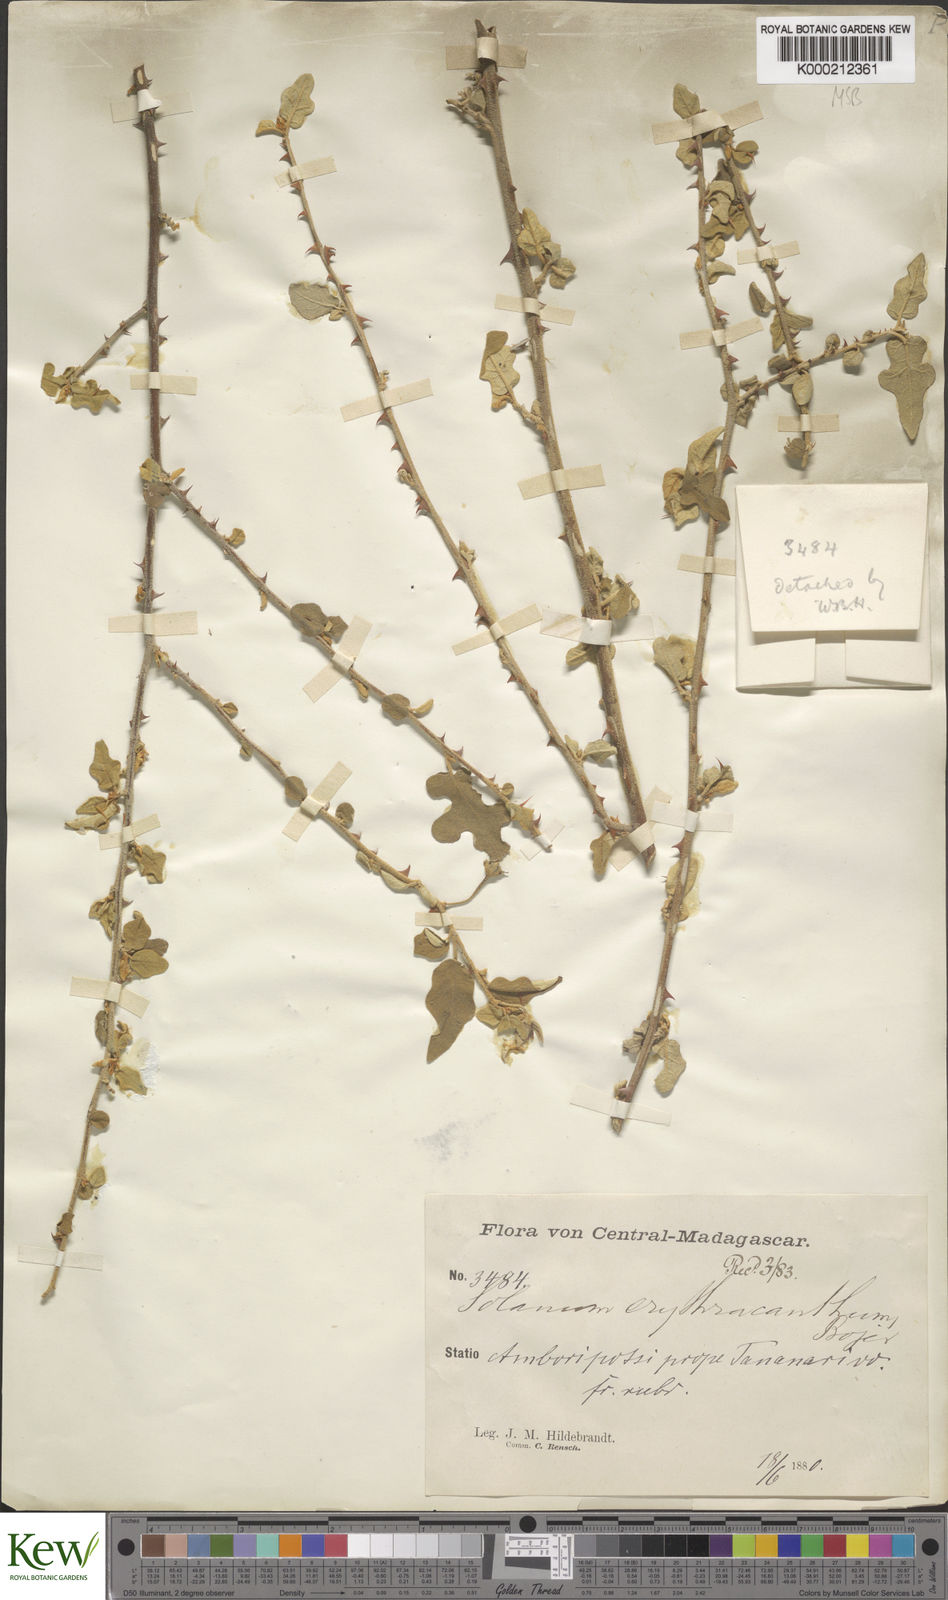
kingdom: Plantae
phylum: Tracheophyta
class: Magnoliopsida
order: Solanales
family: Solanaceae
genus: Solanum
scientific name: Solanum erythracanthum
